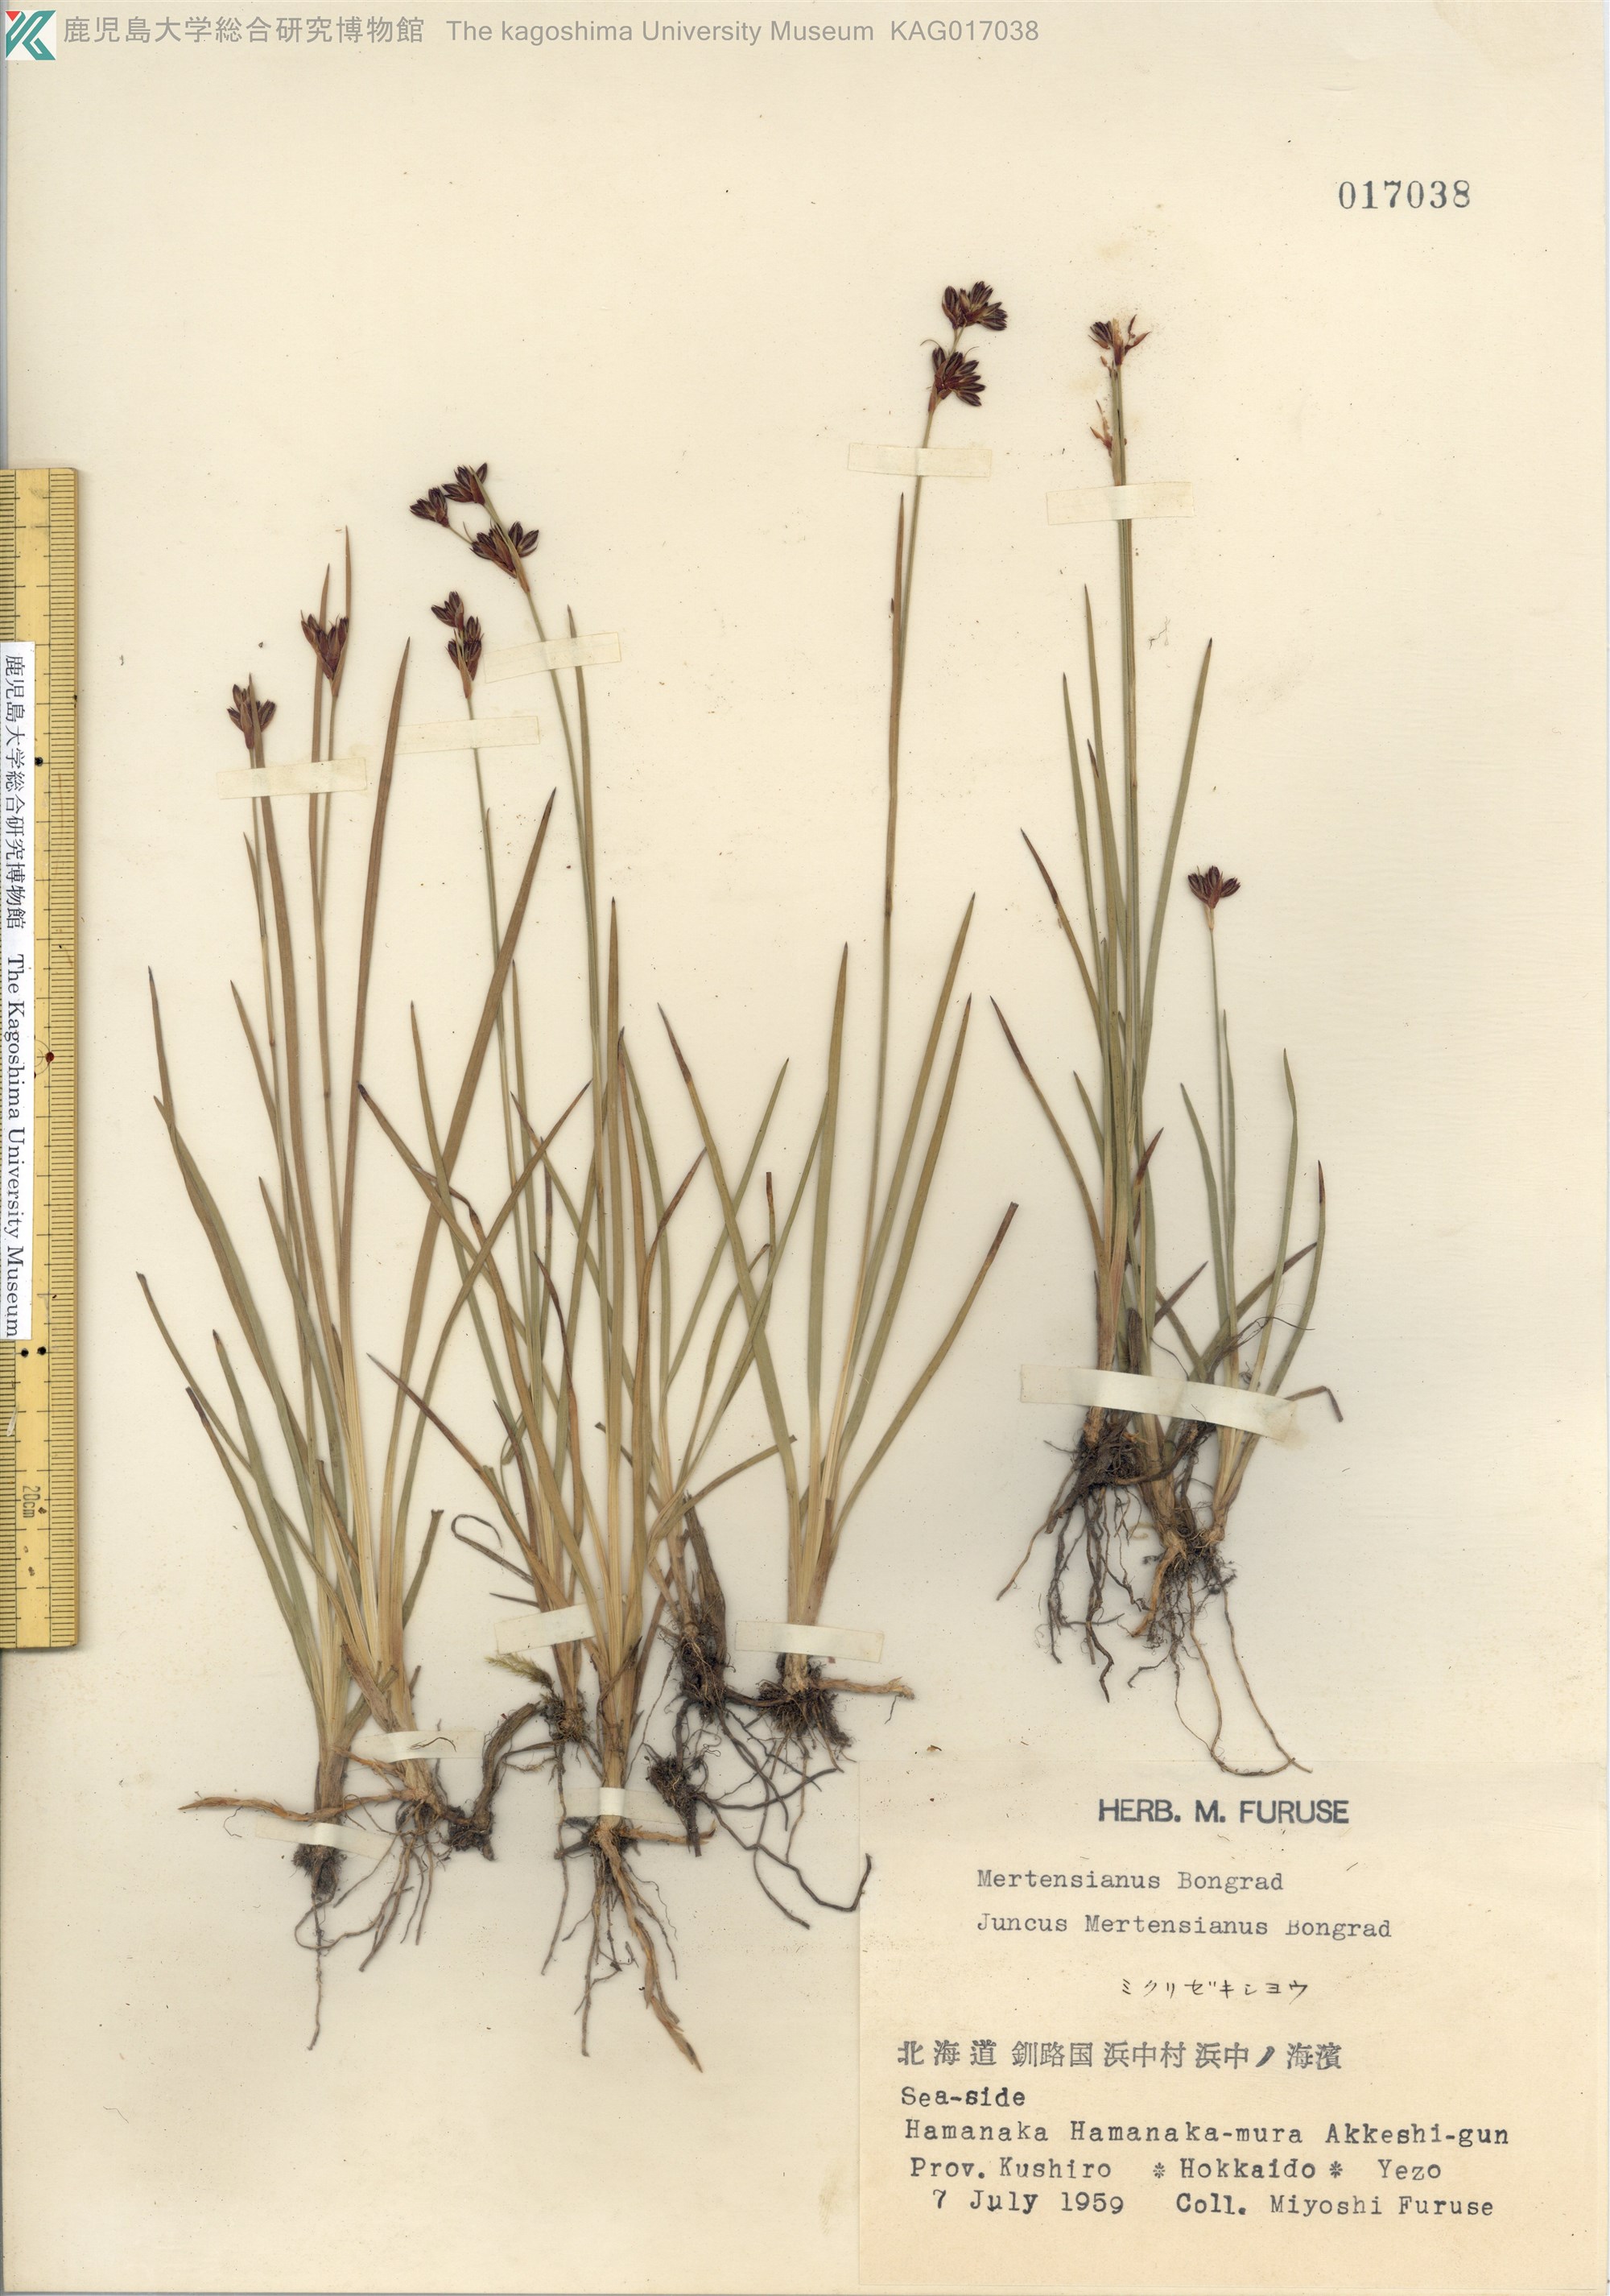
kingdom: Plantae
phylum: Tracheophyta
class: Liliopsida
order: Poales
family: Juncaceae
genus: Juncus
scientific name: Juncus mertensianus
